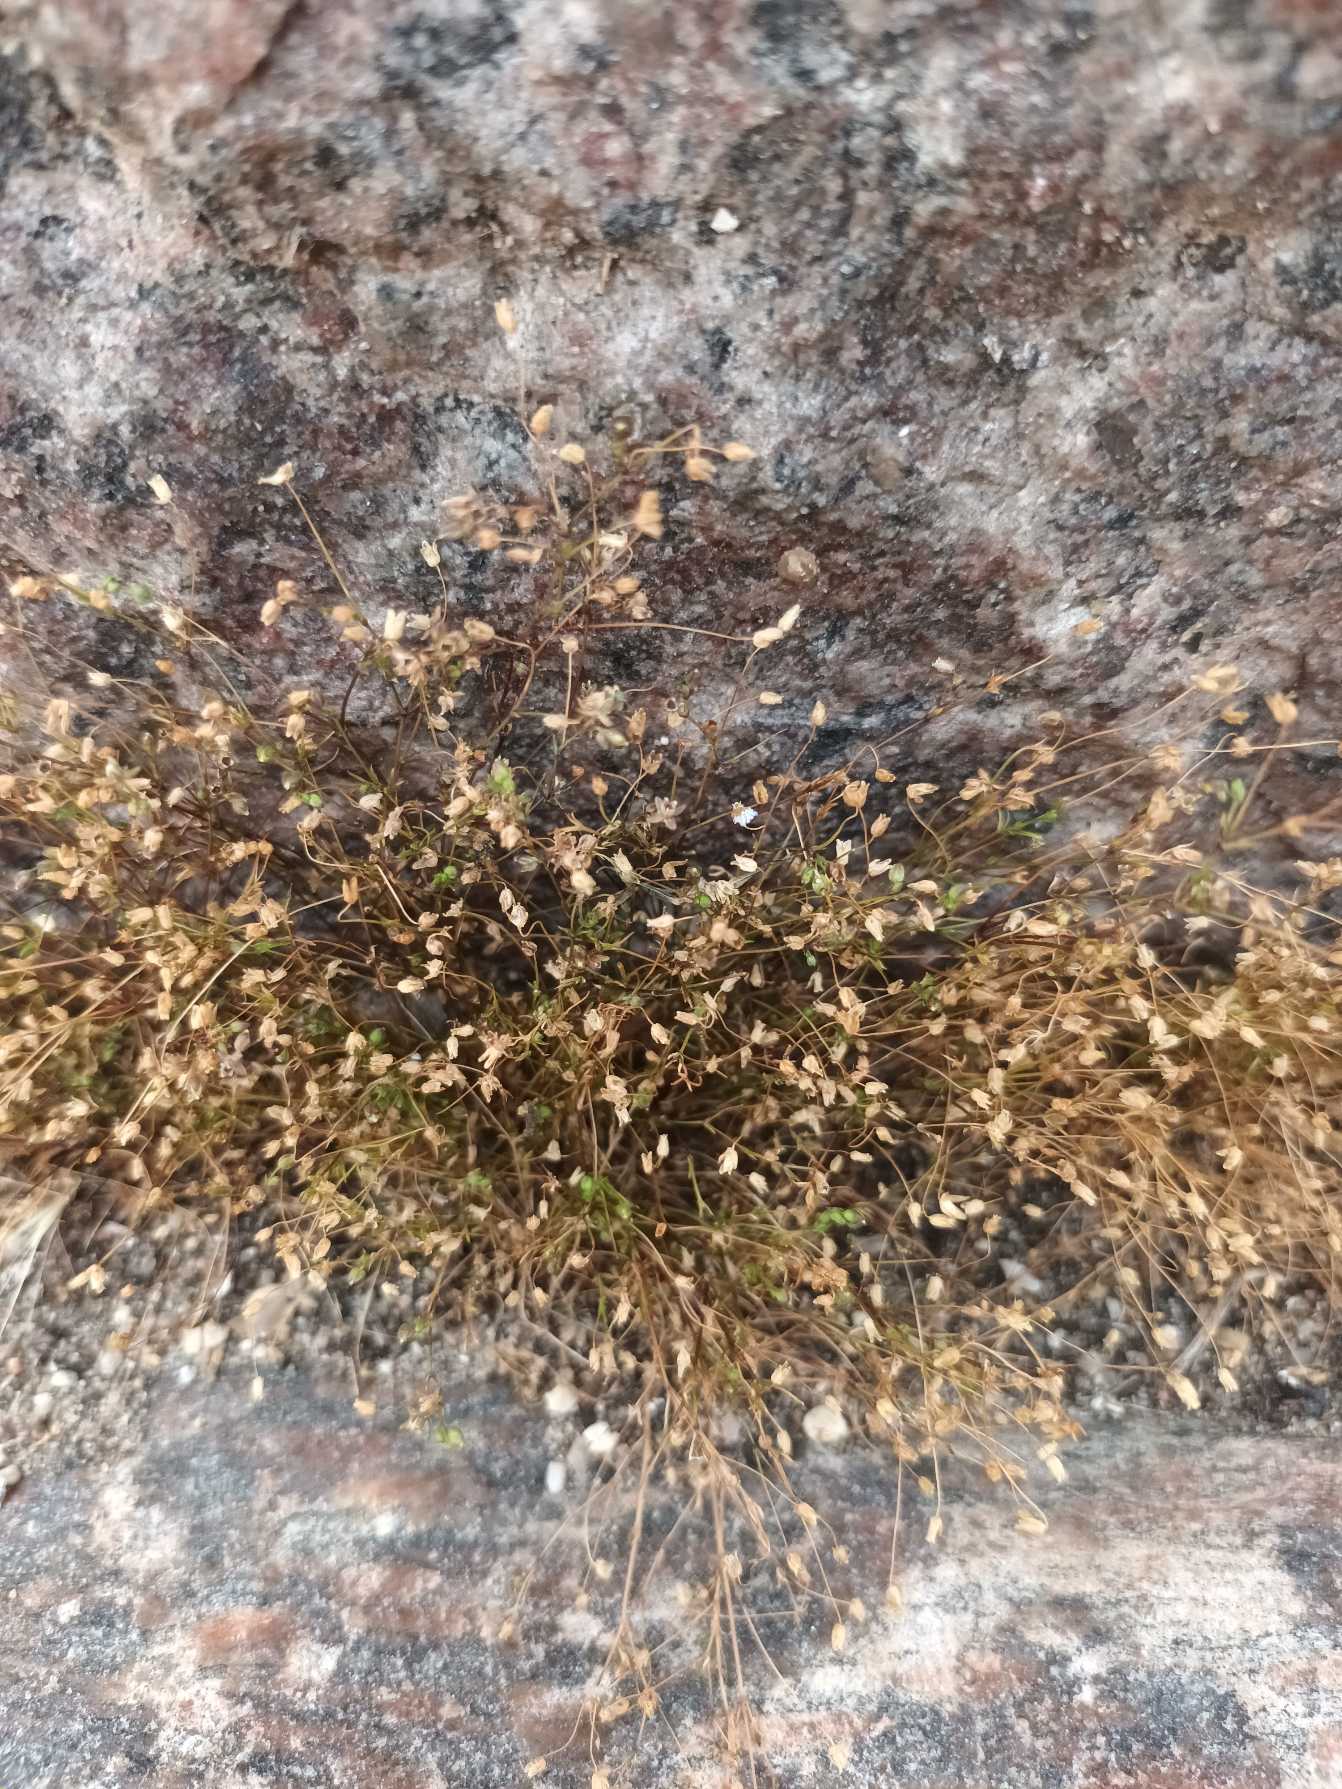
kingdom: Plantae
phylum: Tracheophyta
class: Magnoliopsida
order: Caryophyllales
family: Caryophyllaceae
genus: Sagina
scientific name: Sagina apetala
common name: Kronløs firling
